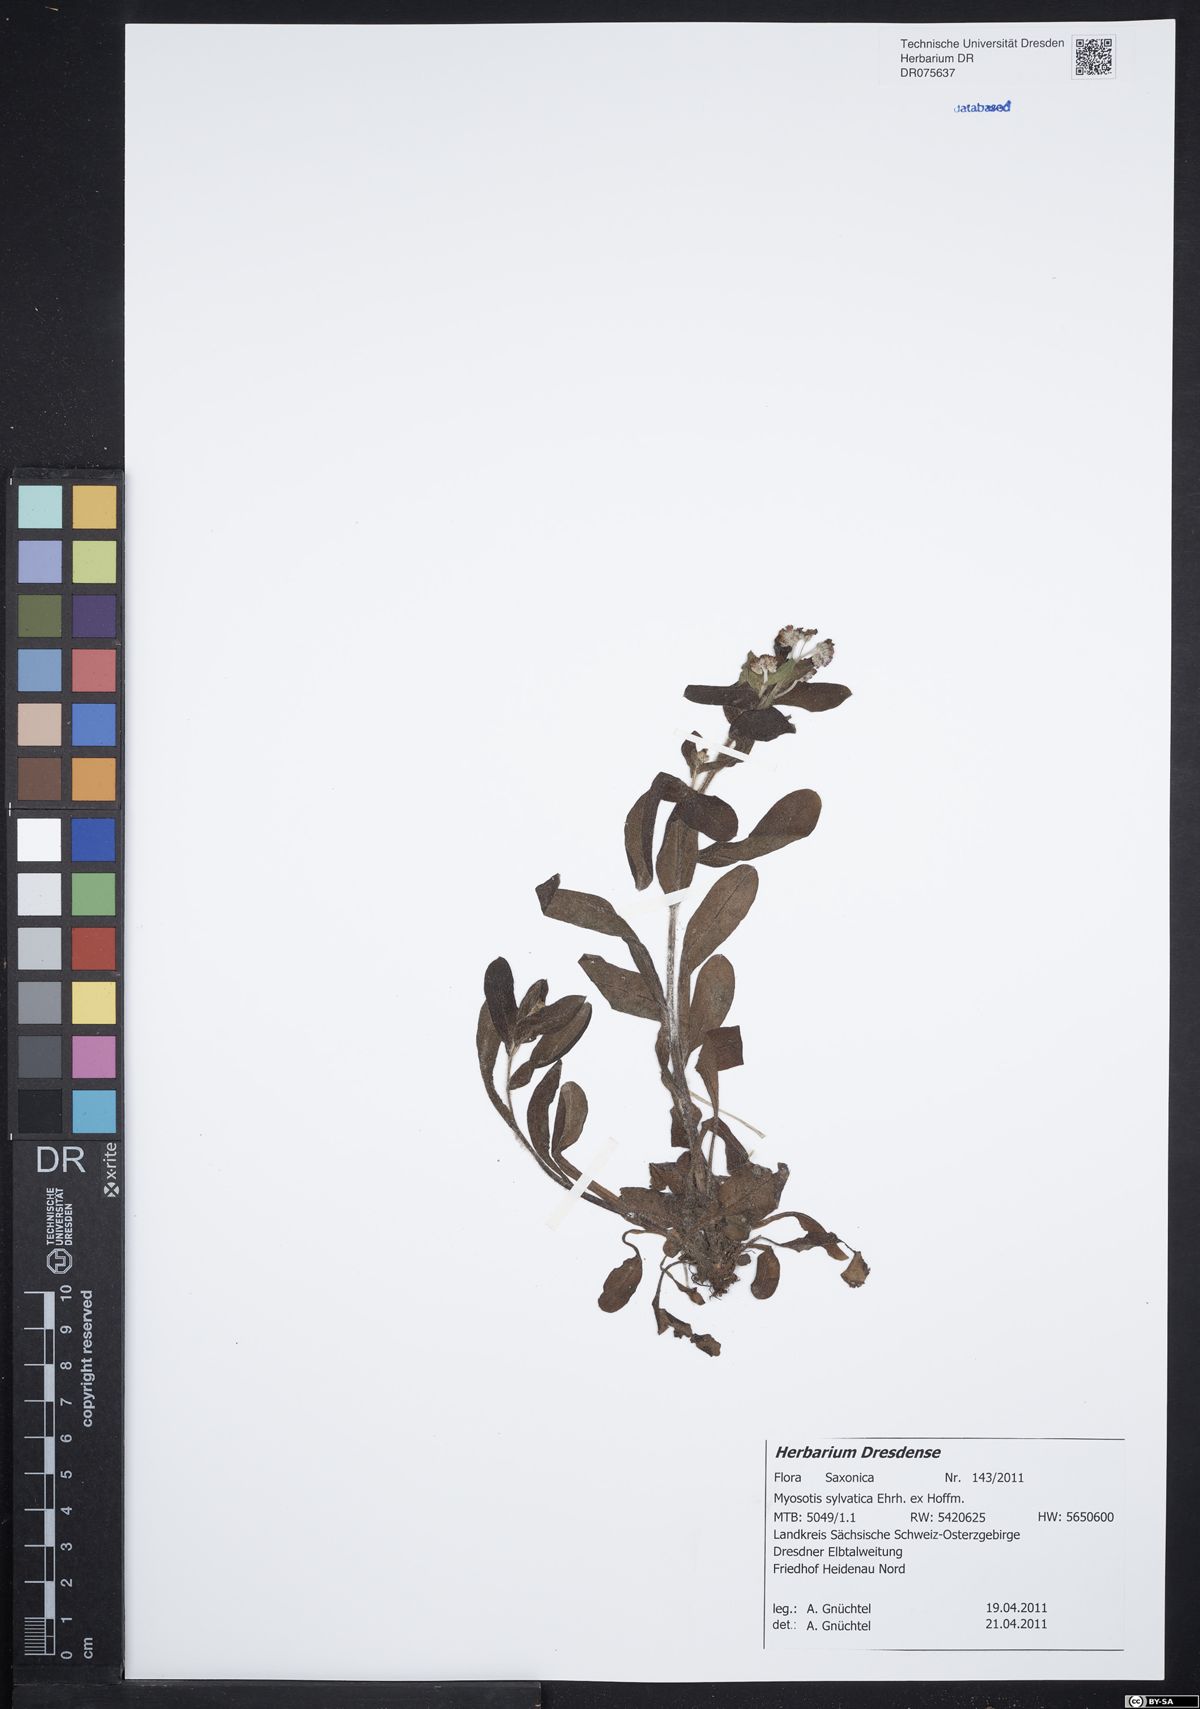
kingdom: Plantae
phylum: Tracheophyta
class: Magnoliopsida
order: Boraginales
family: Boraginaceae
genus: Myosotis
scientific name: Myosotis sylvatica
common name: Wood forget-me-not
